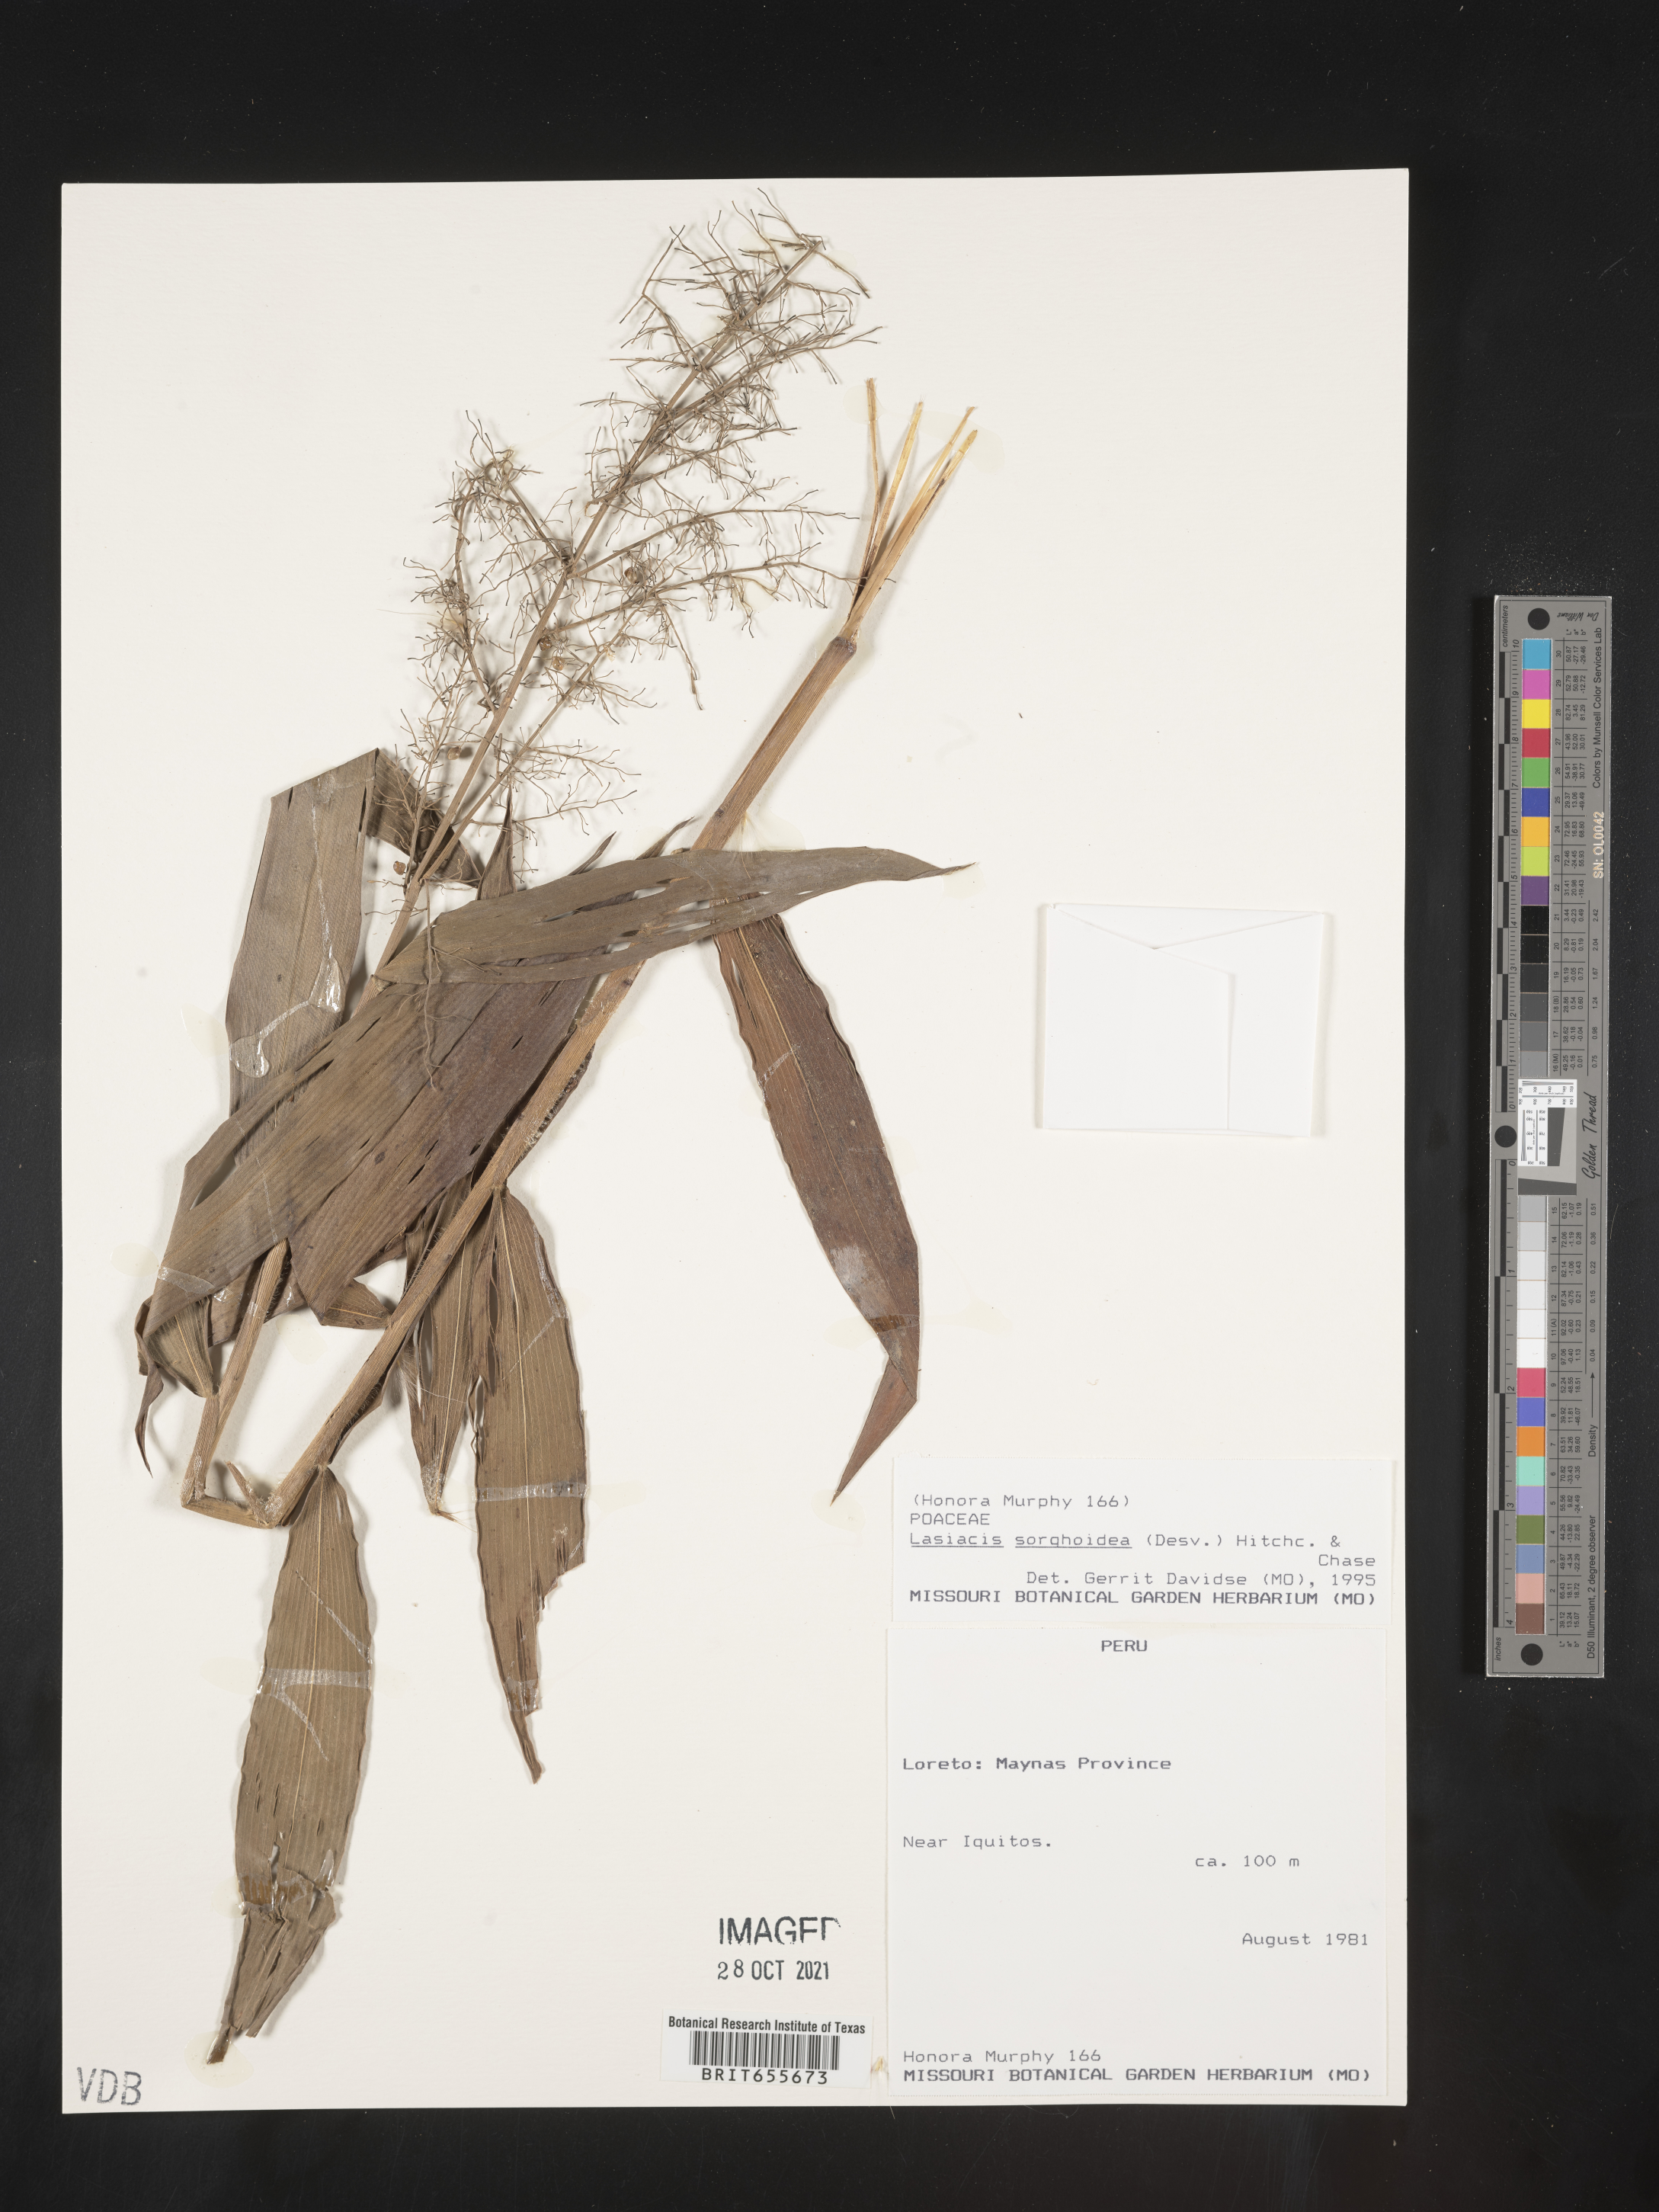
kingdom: Plantae
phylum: Tracheophyta
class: Liliopsida
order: Poales
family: Poaceae
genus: Lasiacis
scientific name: Lasiacis
